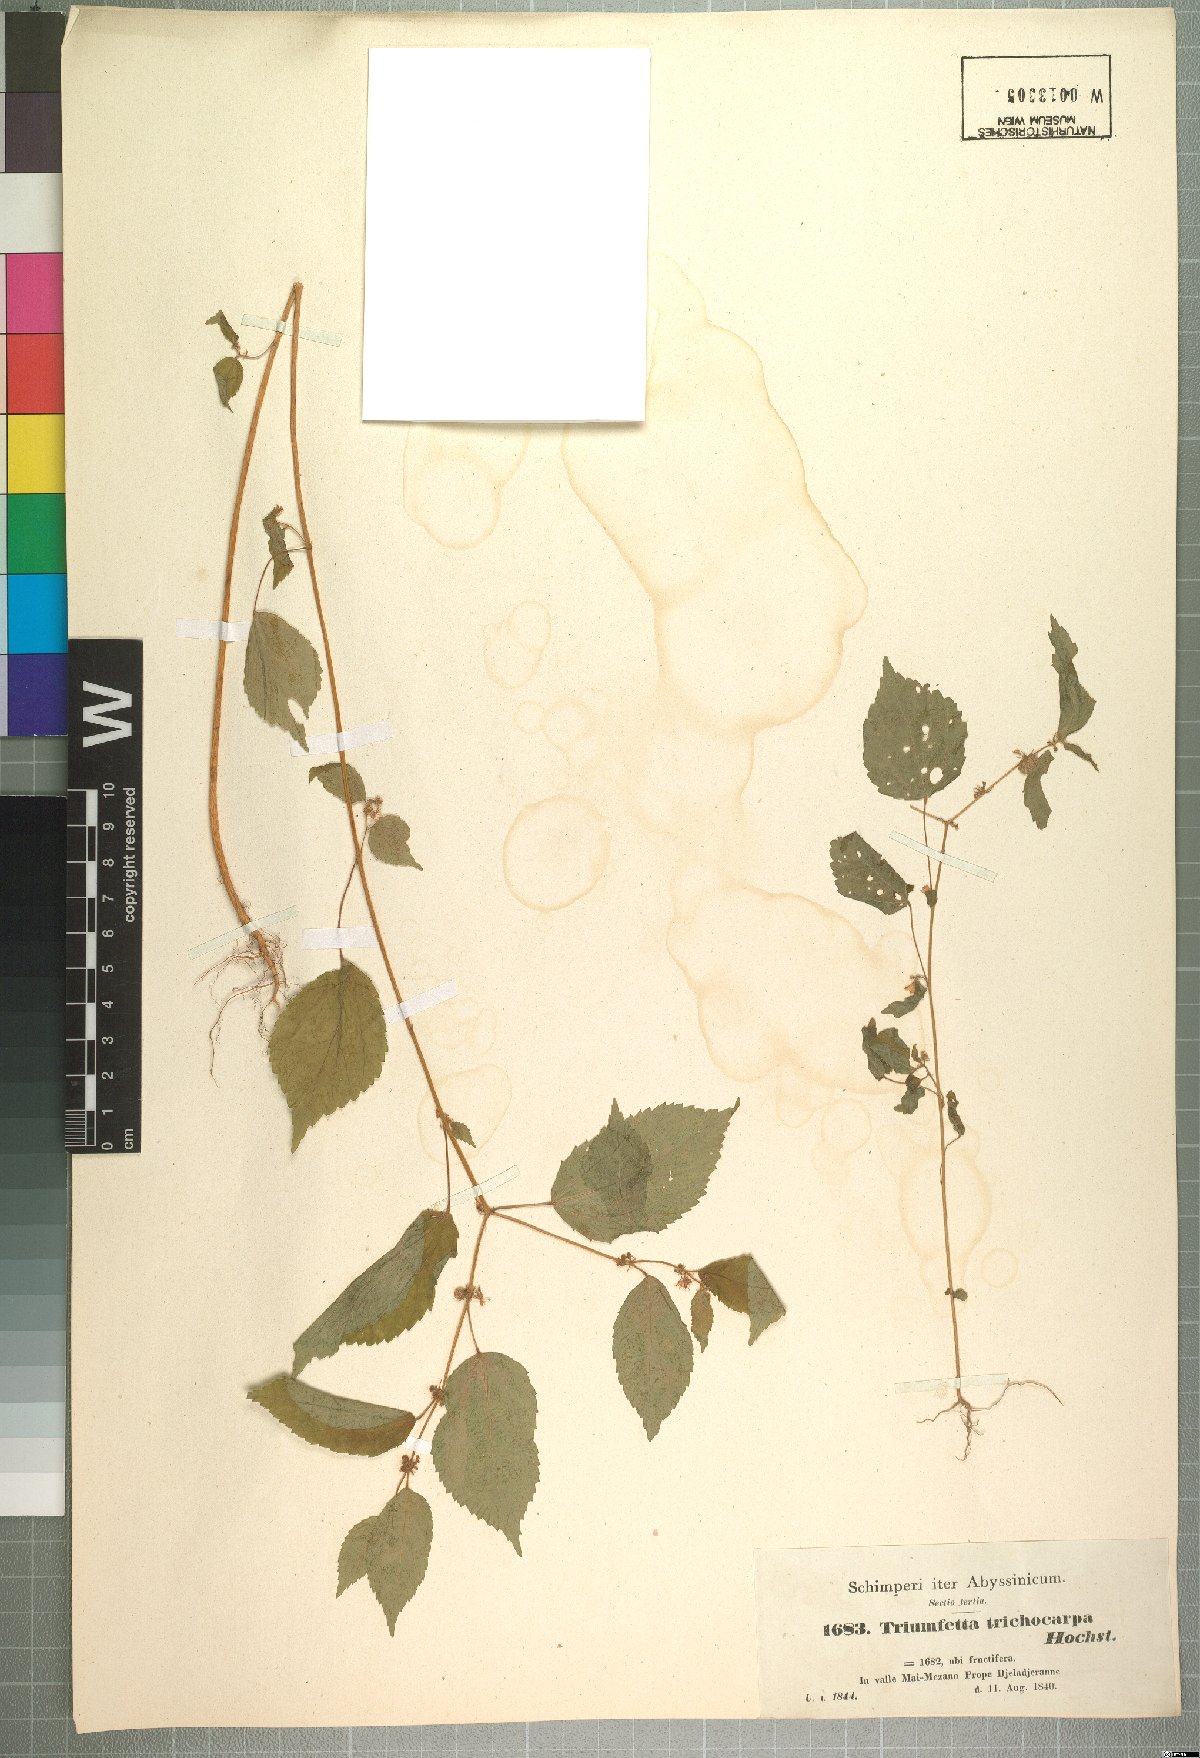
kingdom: Plantae
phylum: Tracheophyta
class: Magnoliopsida
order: Malvales
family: Malvaceae
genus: Triumfetta
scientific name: Triumfetta trichocarpa
